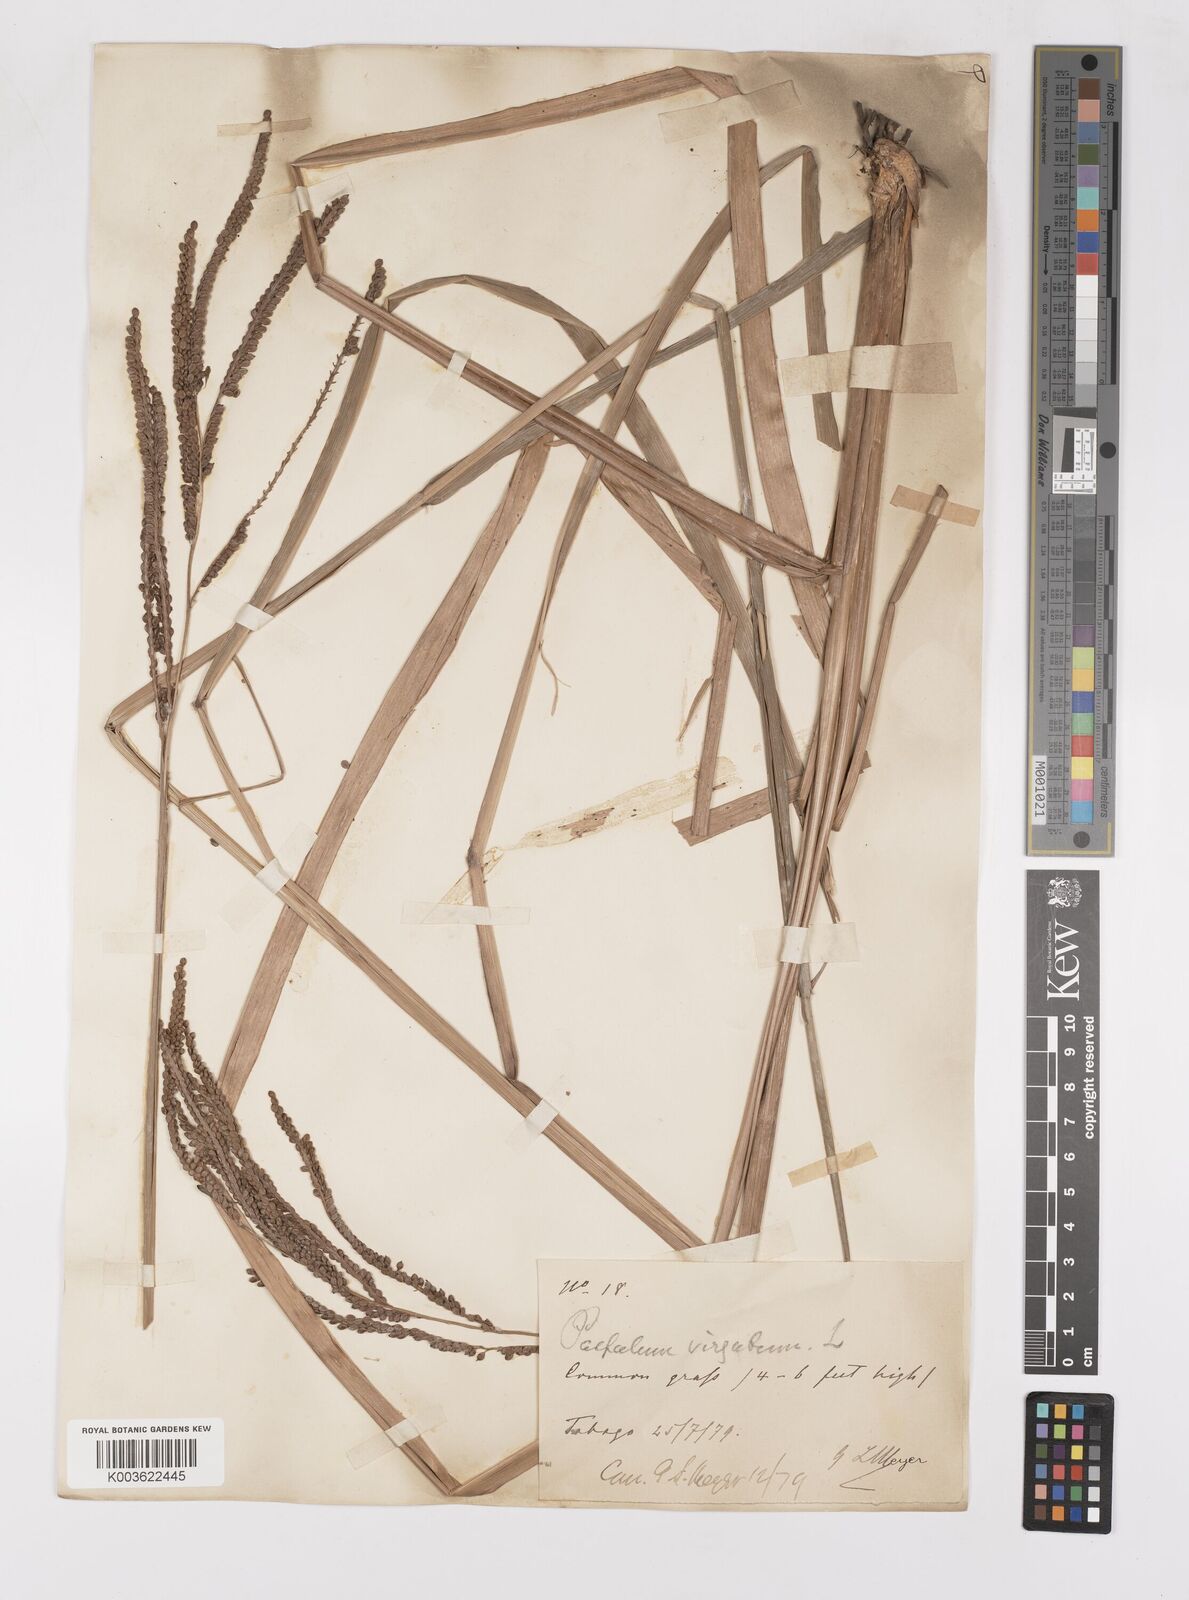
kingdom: Plantae
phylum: Tracheophyta
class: Liliopsida
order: Poales
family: Poaceae
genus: Paspalum
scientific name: Paspalum virgatum
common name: Talquezal
